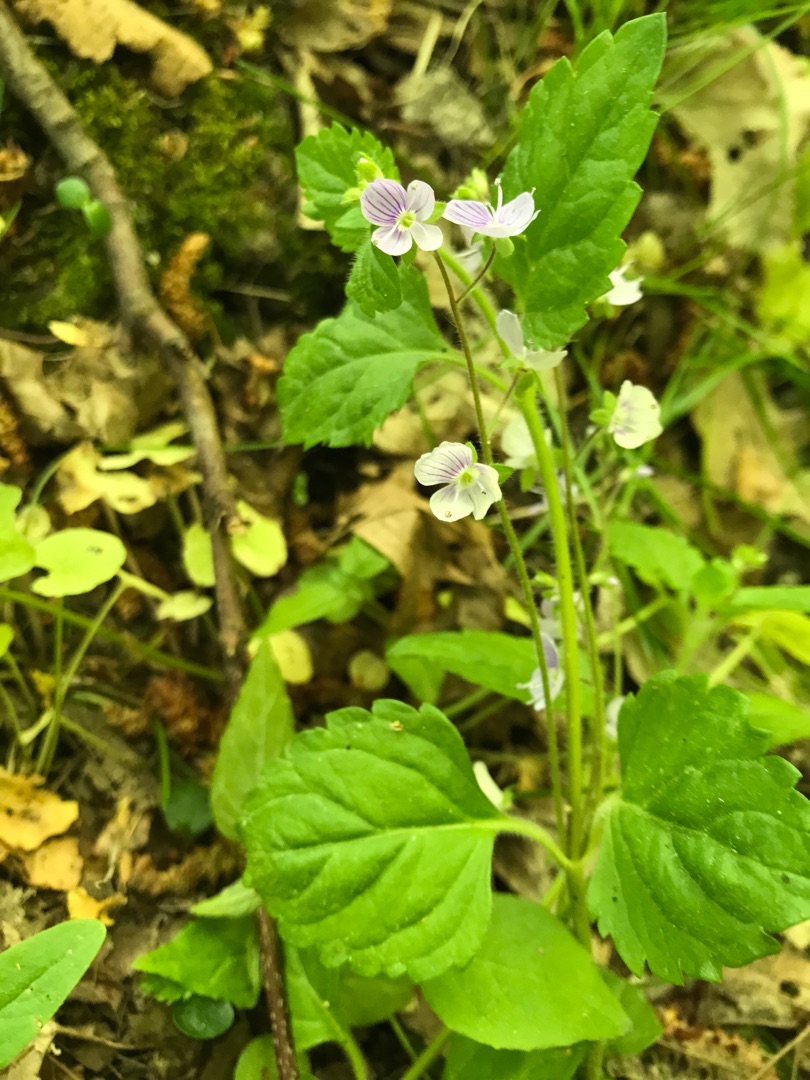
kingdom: Plantae
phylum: Tracheophyta
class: Magnoliopsida
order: Lamiales
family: Plantaginaceae
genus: Veronica
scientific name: Veronica montana
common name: Bjerg-ærenpris
